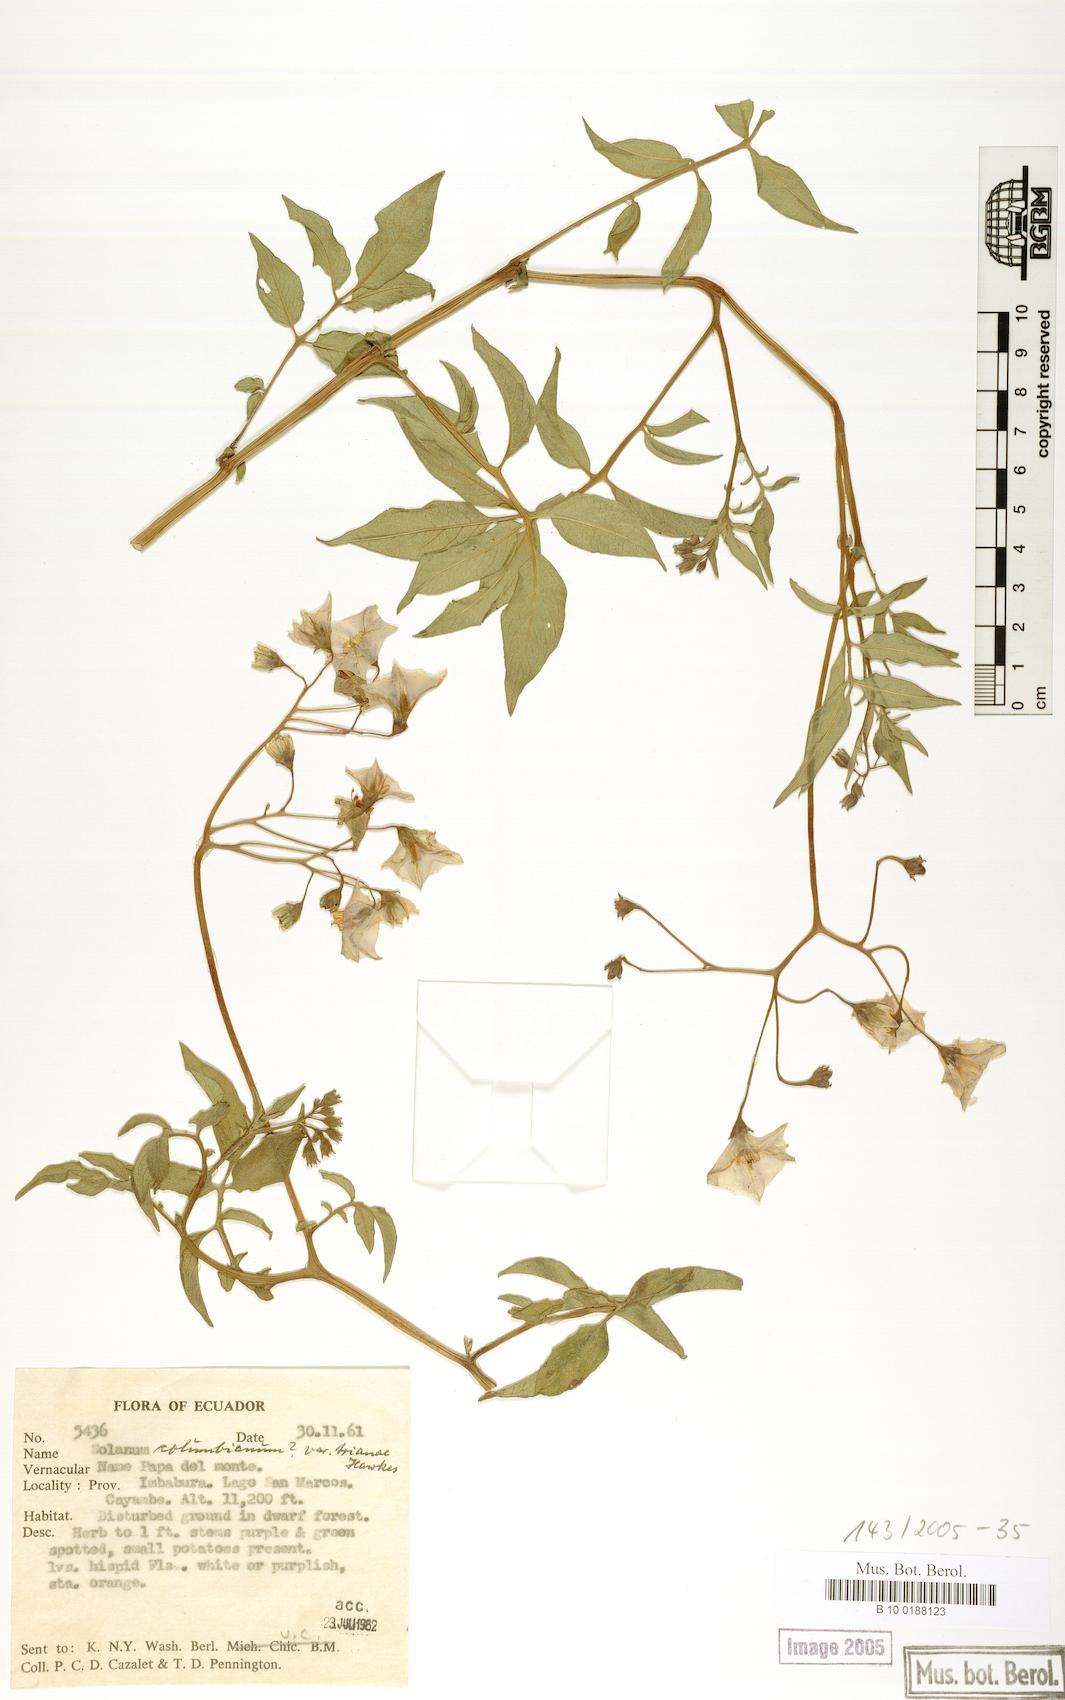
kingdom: Plantae
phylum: Tracheophyta
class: Magnoliopsida
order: Solanales
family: Solanaceae
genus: Solanum
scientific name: Solanum colombianum
